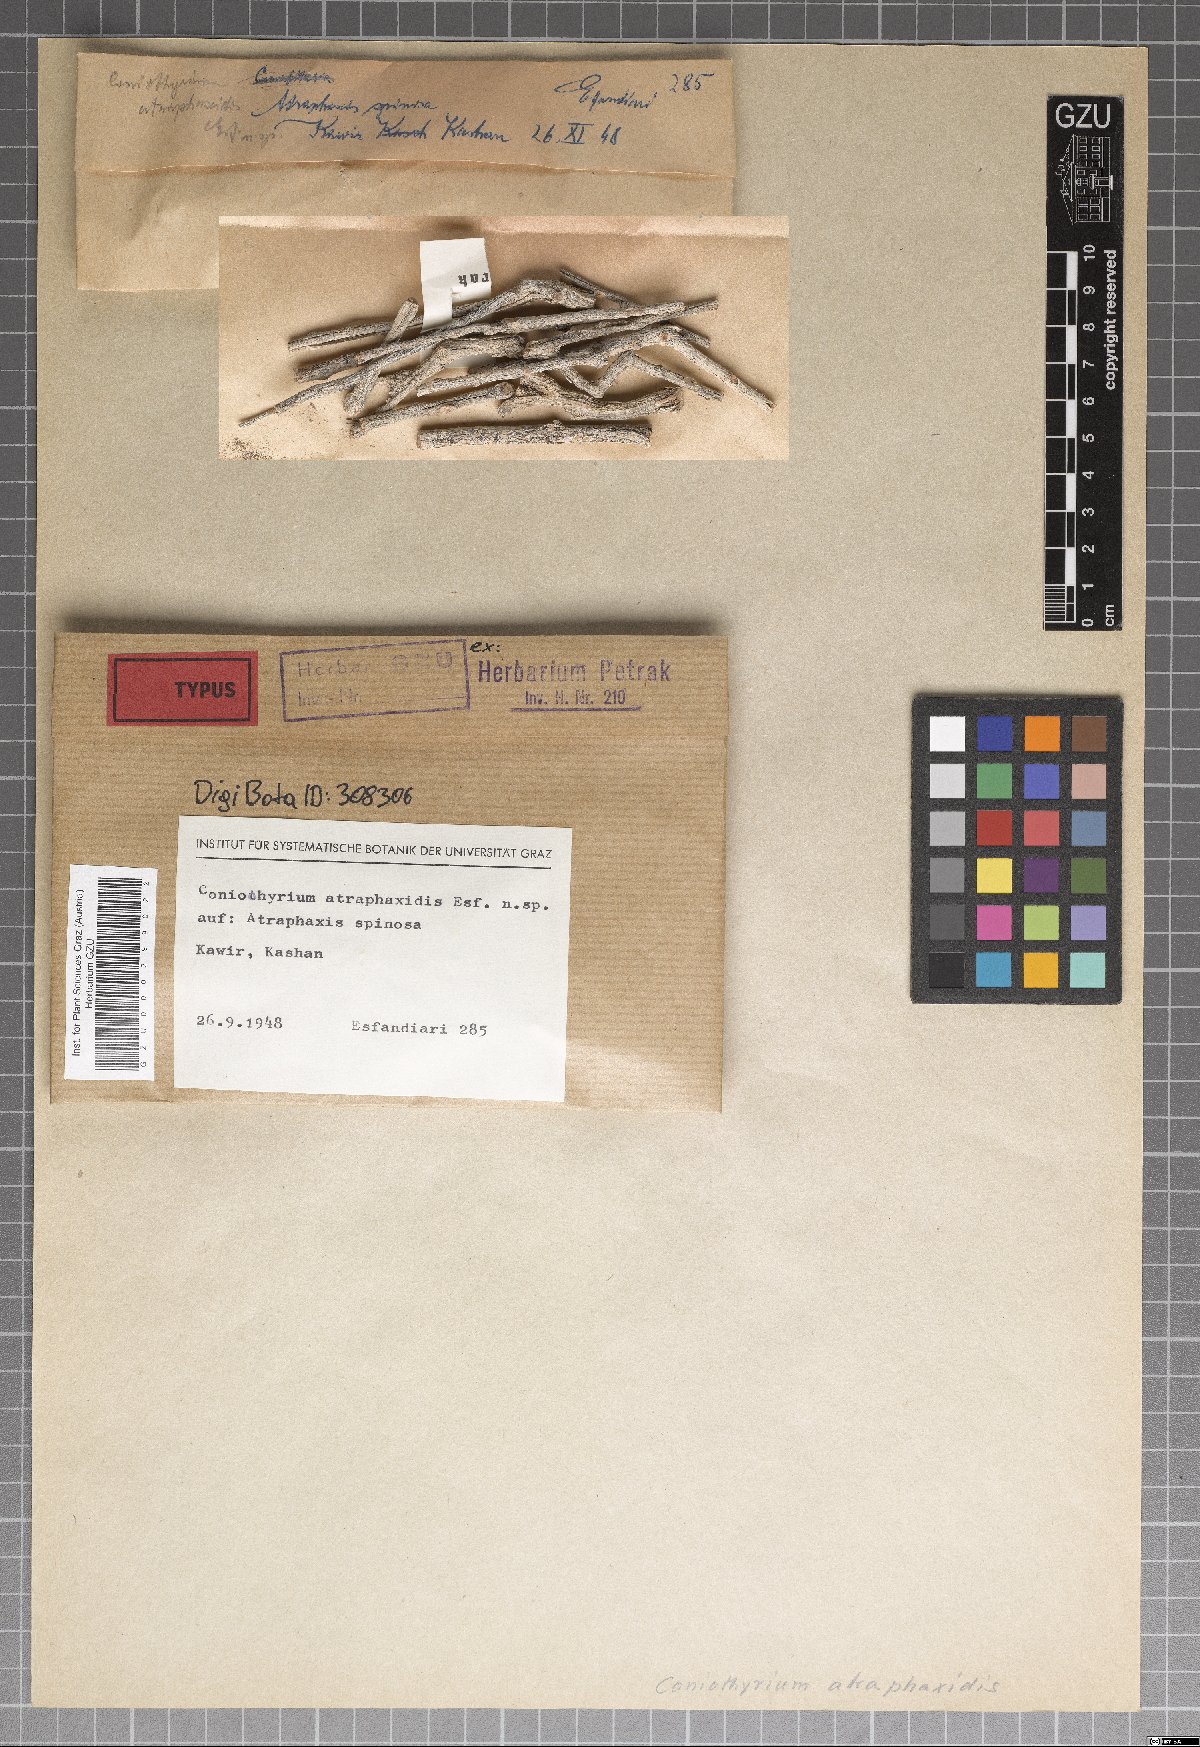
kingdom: Fungi
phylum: Ascomycota
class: Dothideomycetes
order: Pleosporales
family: Coniothyriaceae
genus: Coniothyrium
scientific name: Coniothyrium atraphaxis
